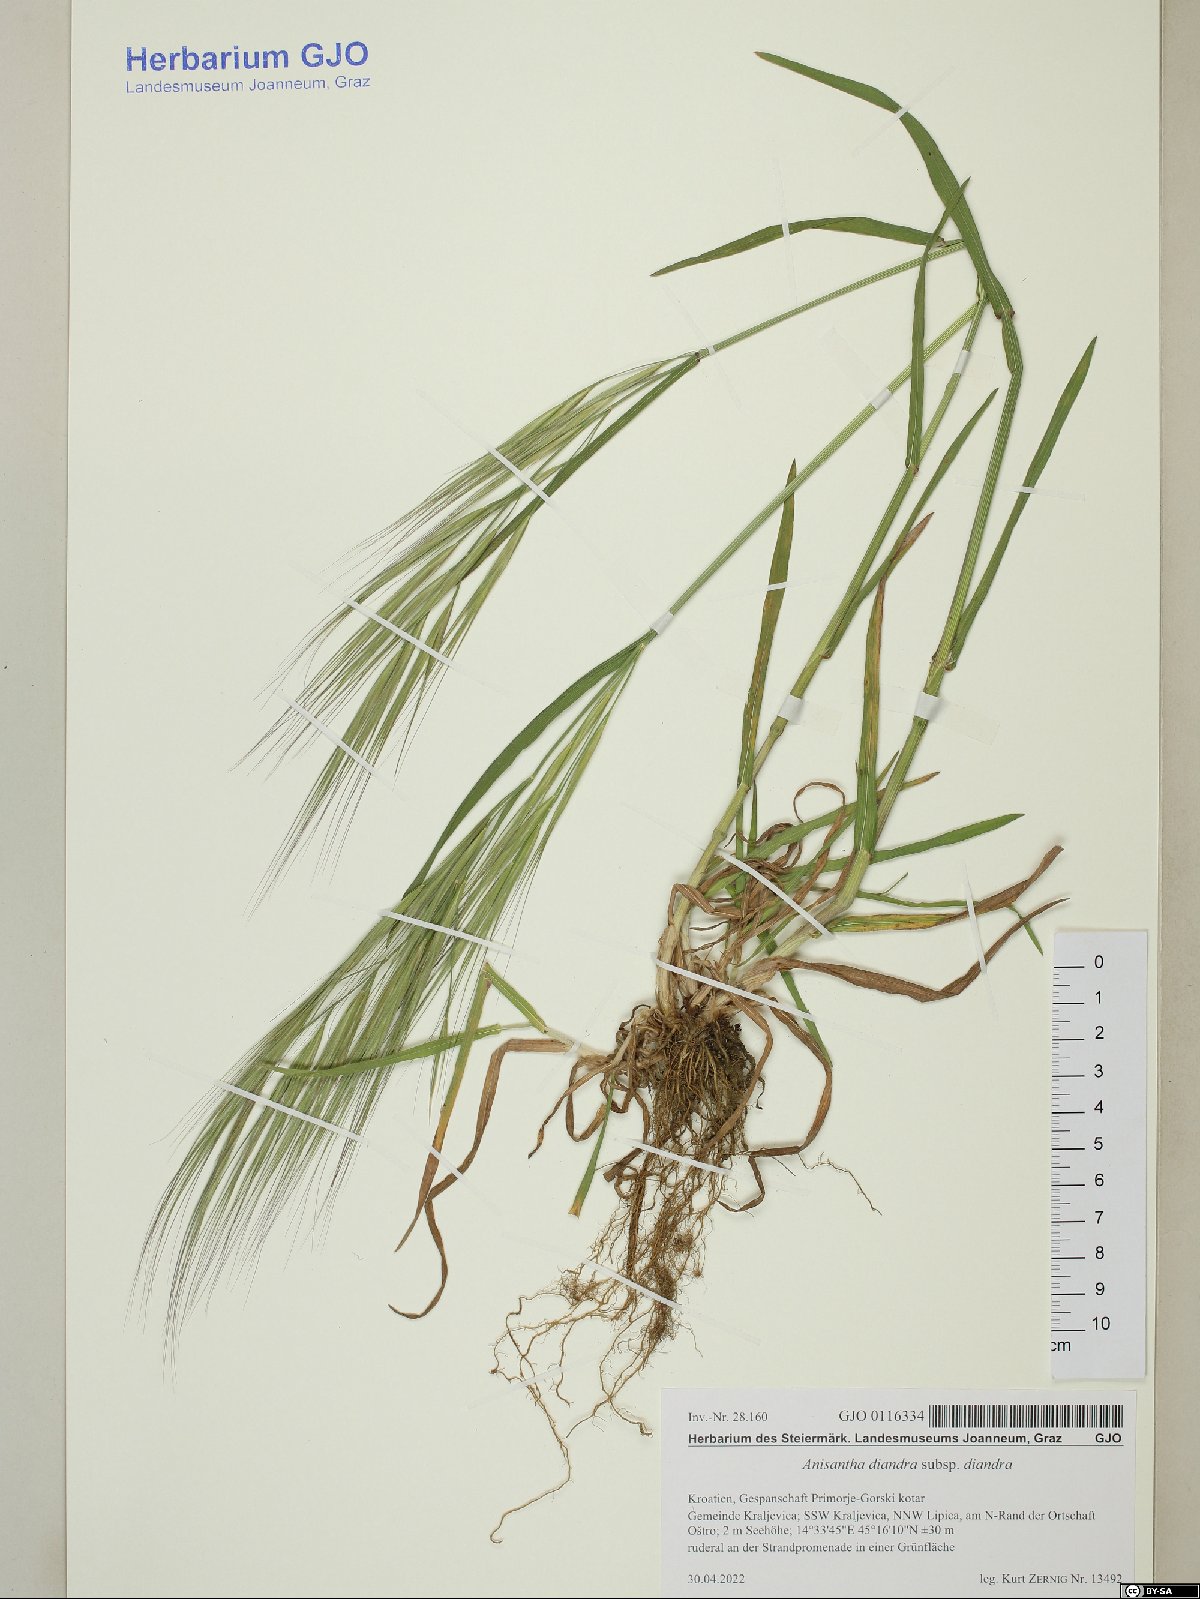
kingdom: Plantae
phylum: Tracheophyta
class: Liliopsida
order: Poales
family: Poaceae
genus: Bromus
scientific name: Bromus diandrus
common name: Ripgut brome
